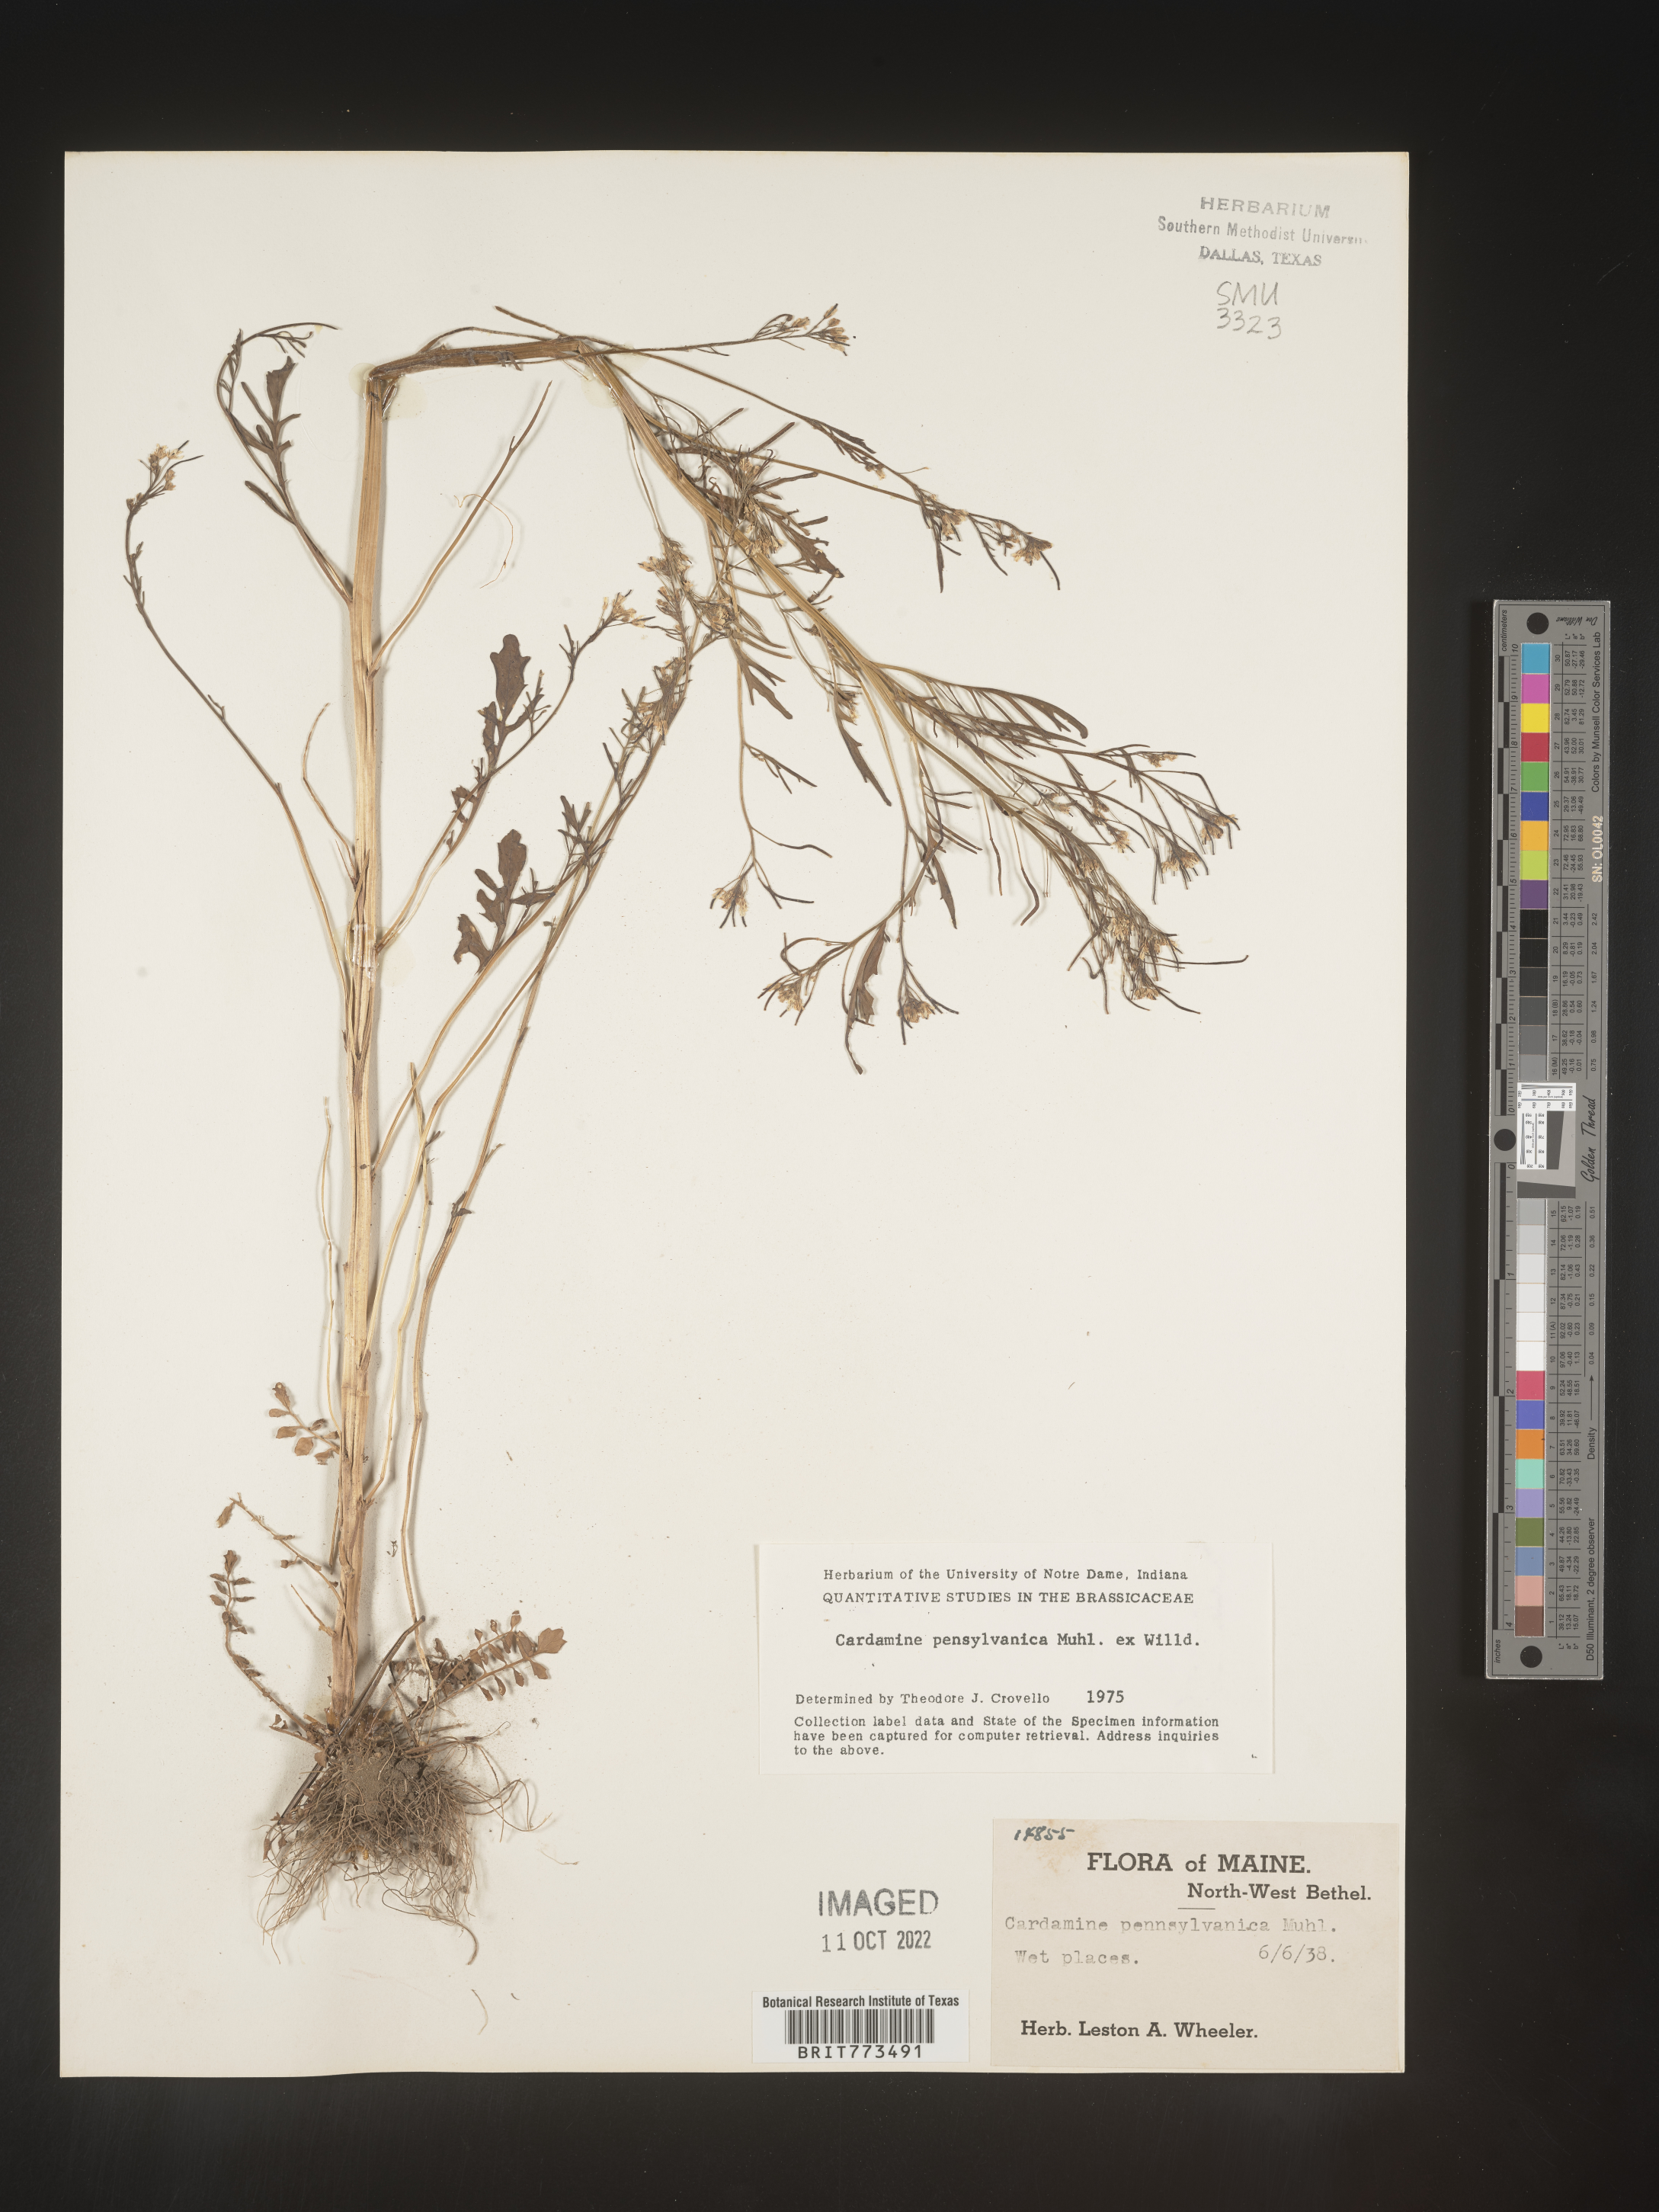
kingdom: Plantae
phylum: Tracheophyta
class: Magnoliopsida
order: Brassicales
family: Brassicaceae
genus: Cardamine
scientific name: Cardamine pensylvanica
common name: Pennsylvania bittercress
